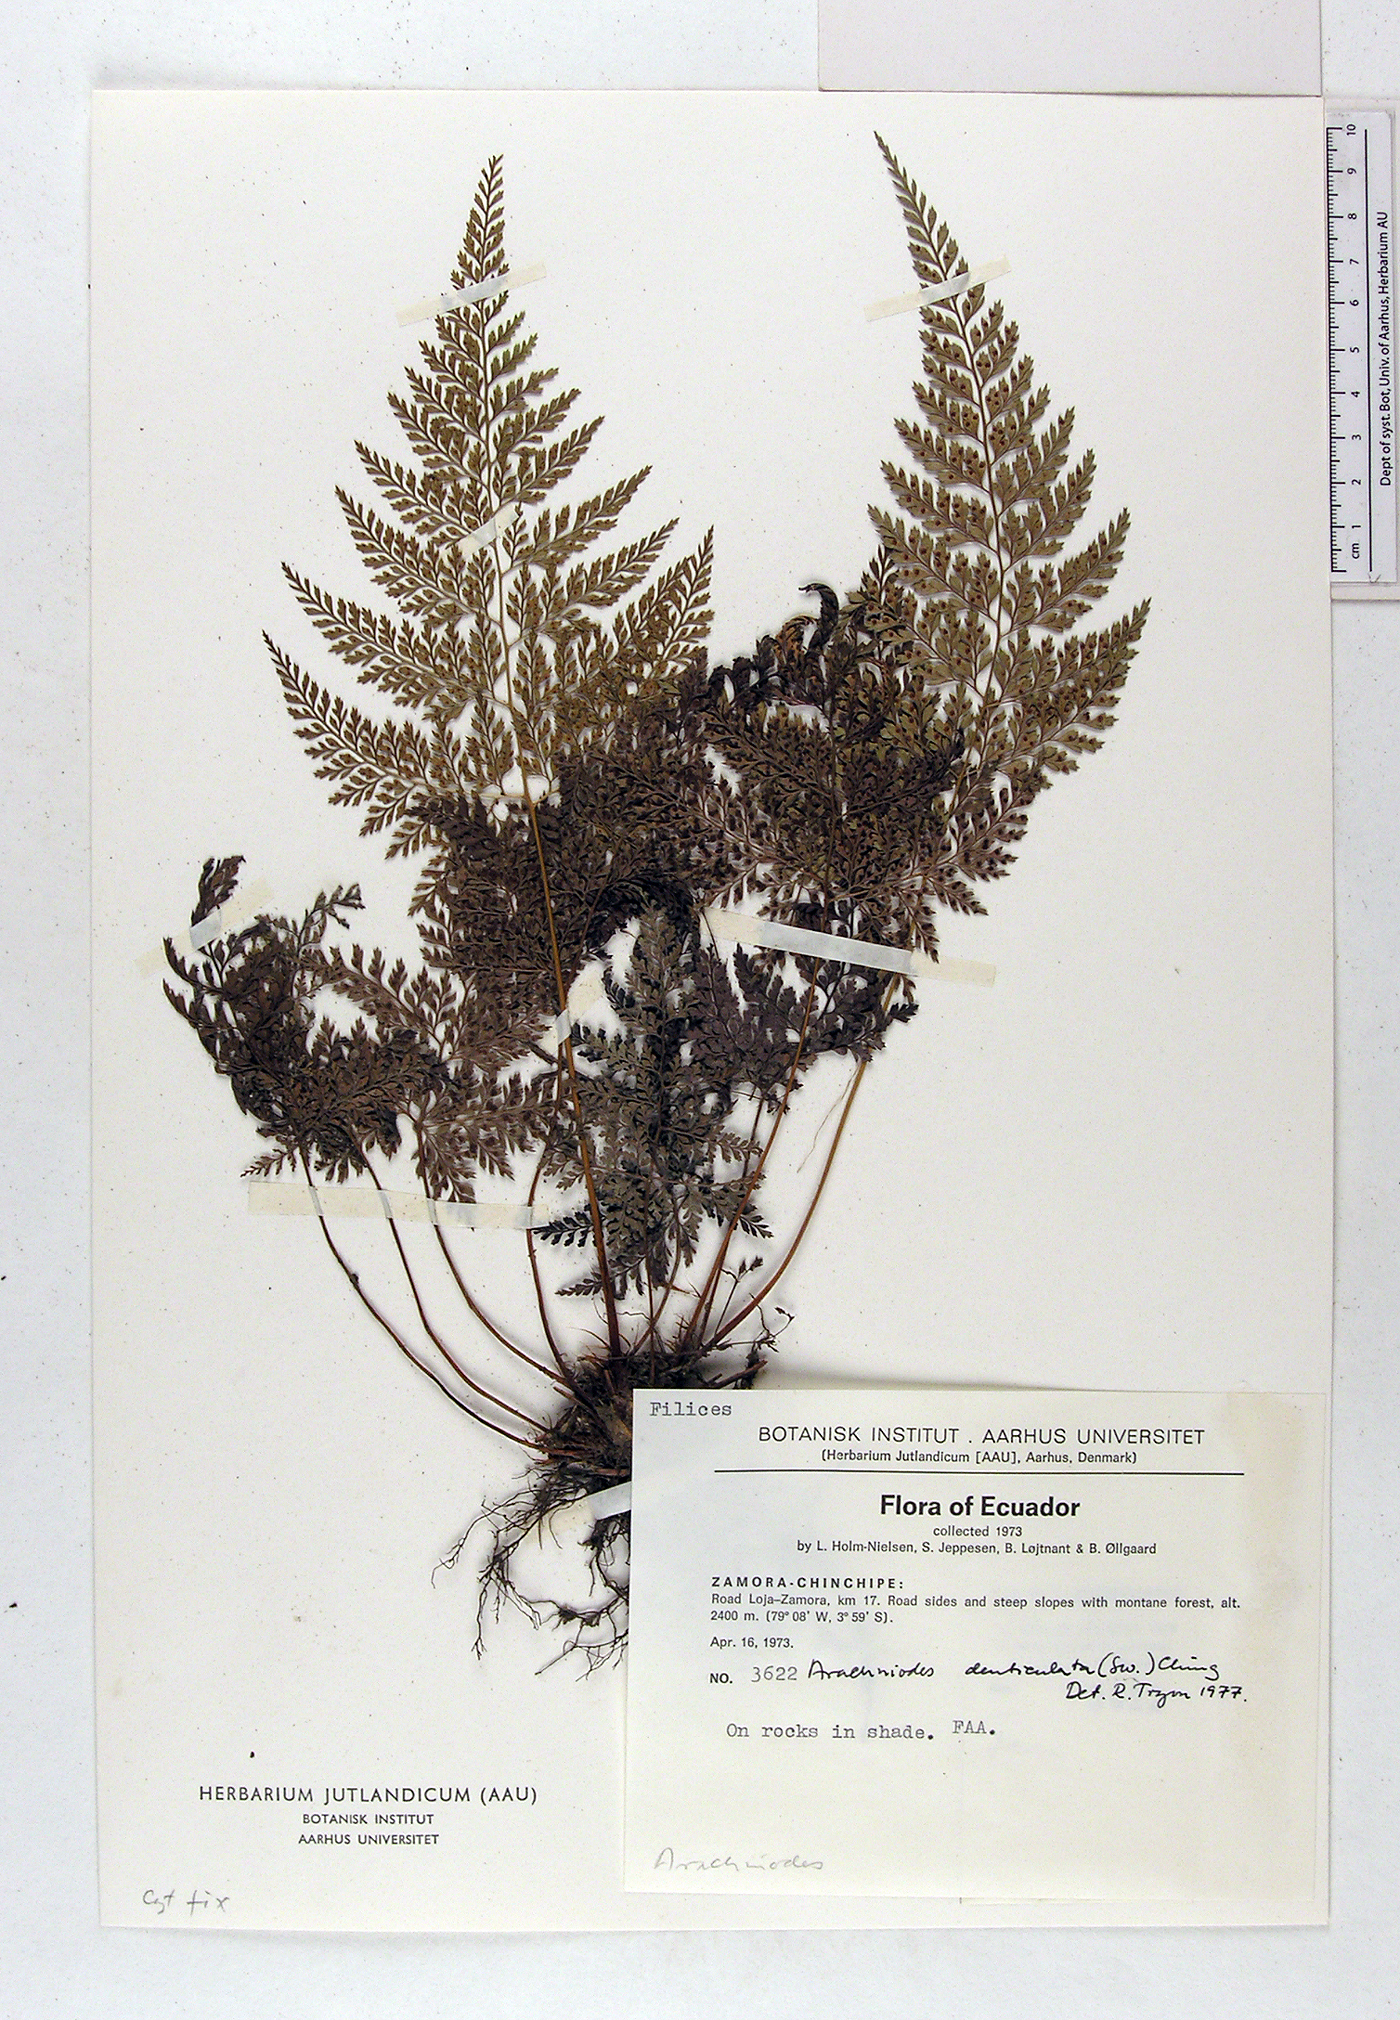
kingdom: Plantae
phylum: Tracheophyta
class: Polypodiopsida
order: Polypodiales
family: Dryopteridaceae
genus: Arachniodes
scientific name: Arachniodes denticulata
